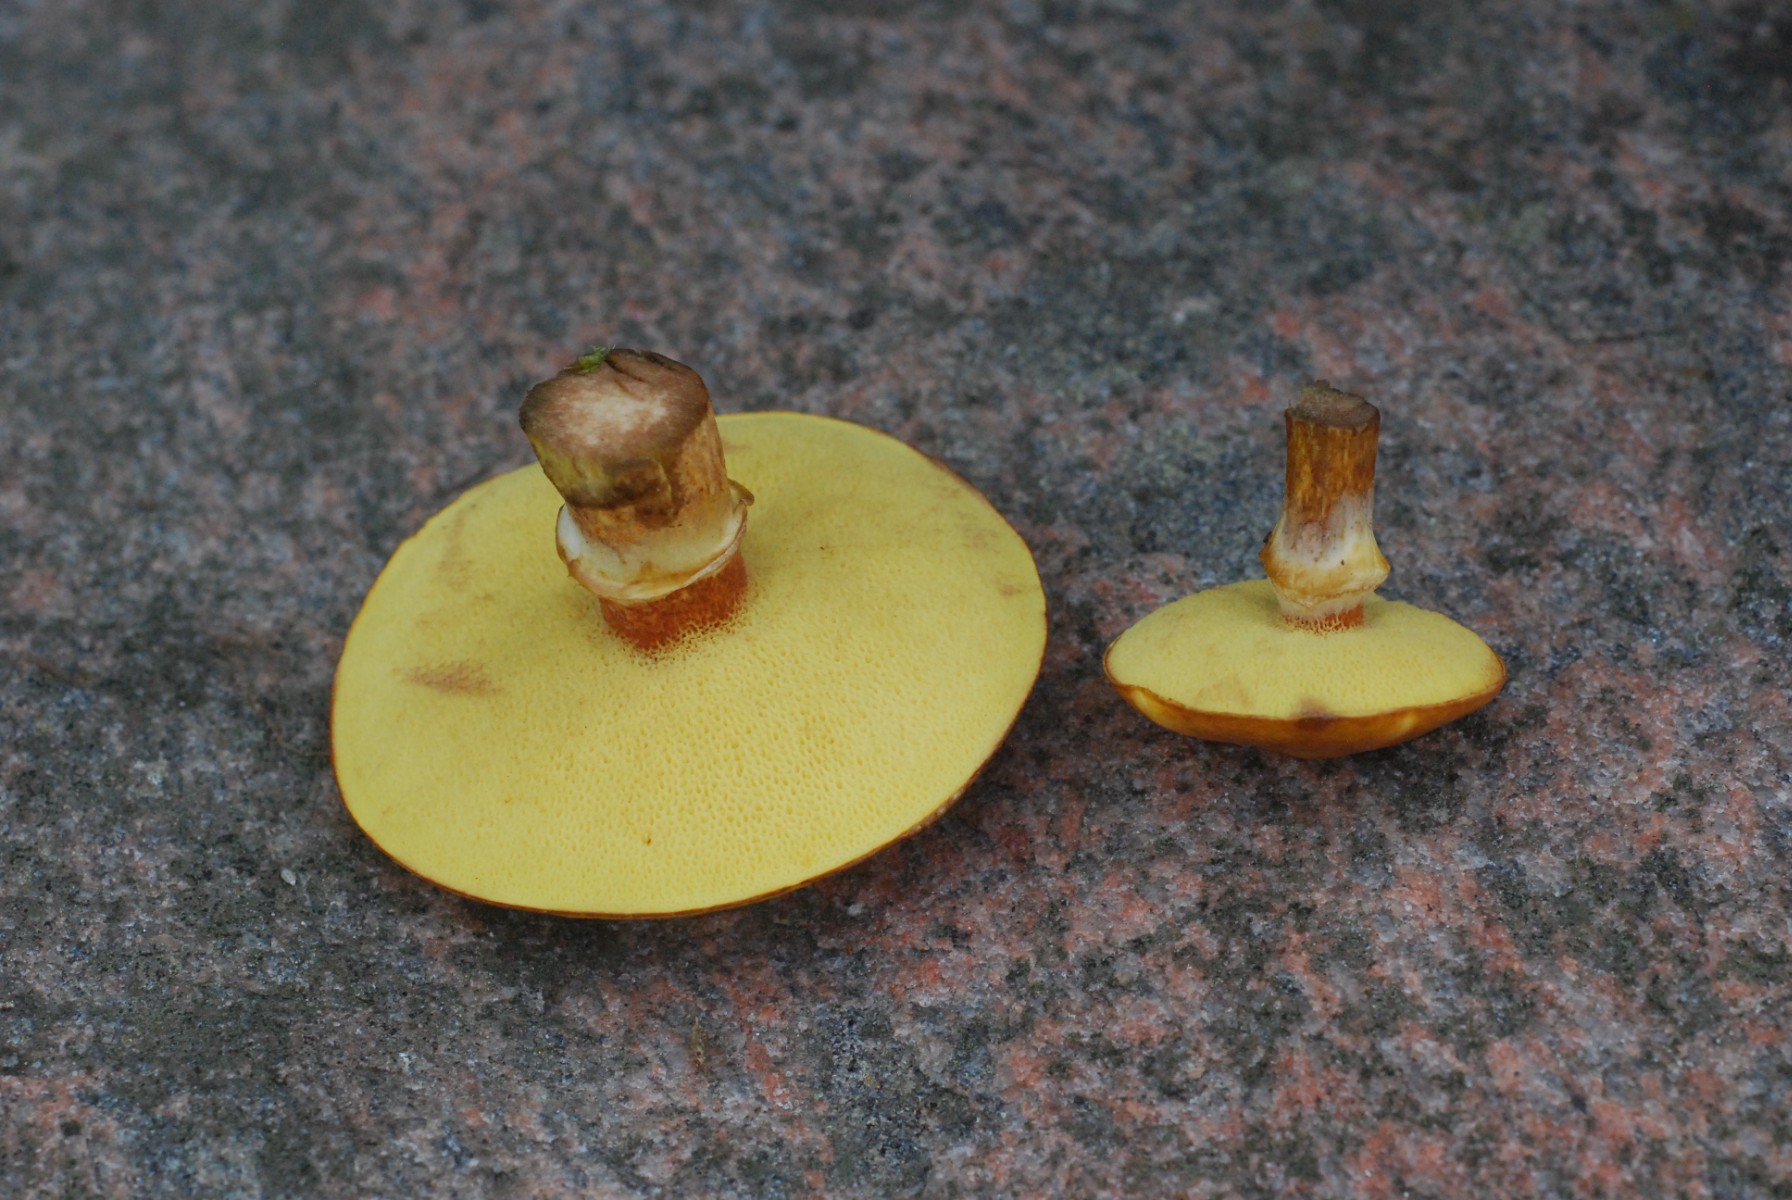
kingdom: Fungi
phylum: Basidiomycota
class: Agaricomycetes
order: Boletales
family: Suillaceae
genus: Suillus
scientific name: Suillus grevillei
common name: lærke-slimrørhat
